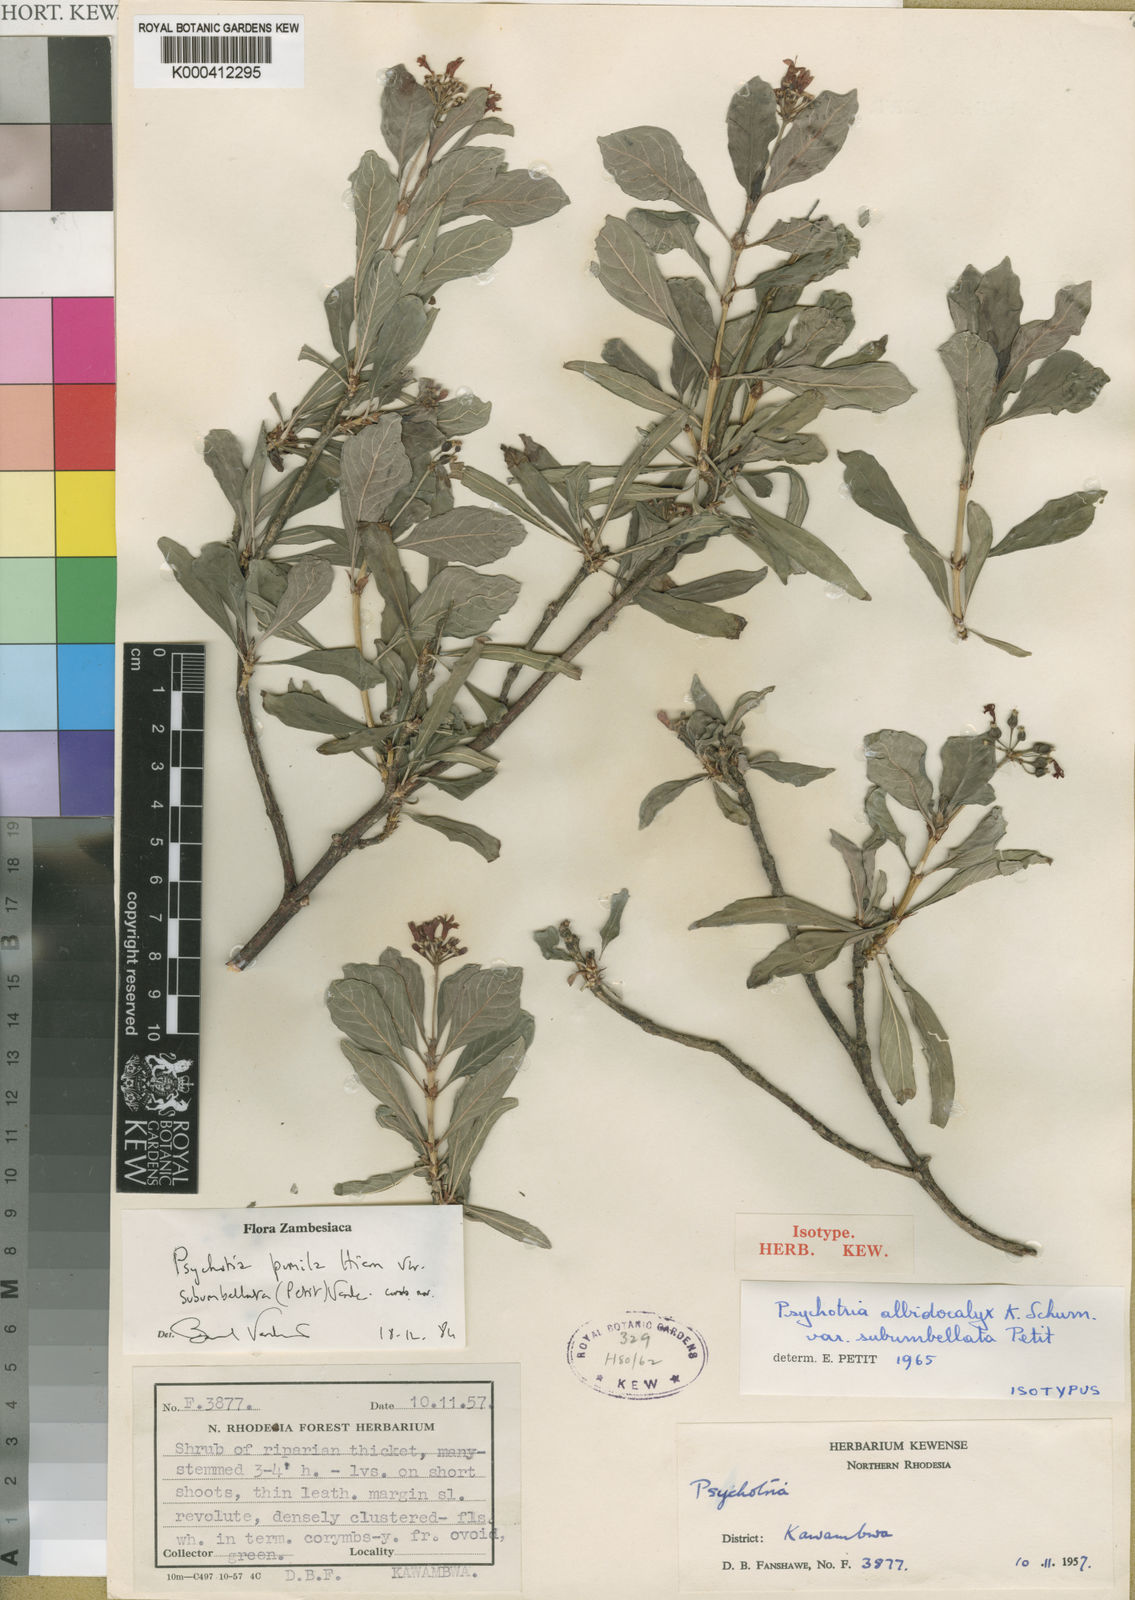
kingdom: Plantae
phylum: Tracheophyta
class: Magnoliopsida
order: Gentianales
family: Rubiaceae
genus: Psychotria
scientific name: Psychotria pumila
